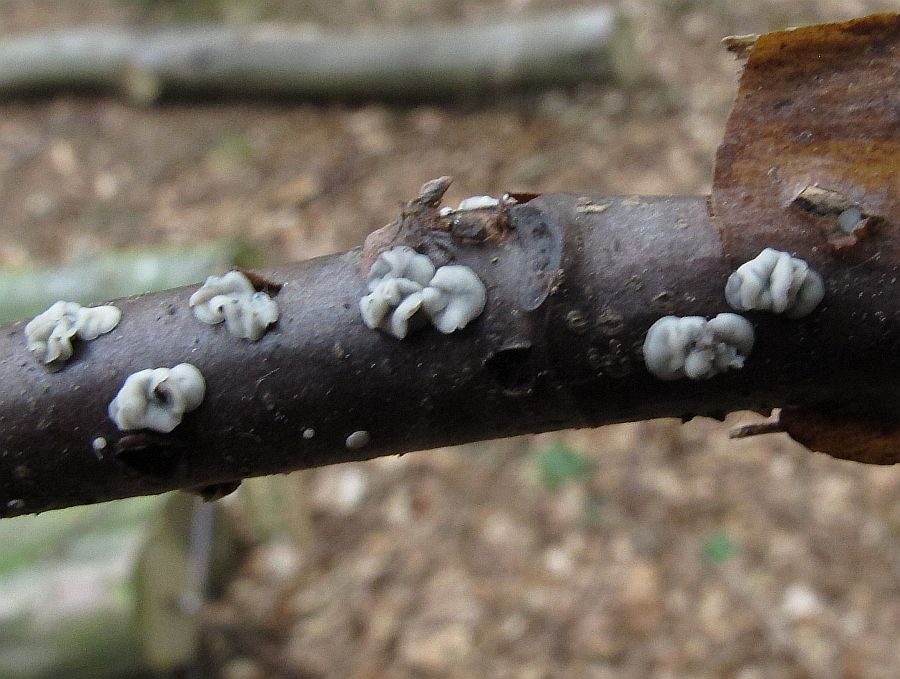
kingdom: Fungi
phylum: Ascomycota
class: Leotiomycetes
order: Helotiales
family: Mollisiaceae
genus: Mollisia
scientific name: Mollisia discolor
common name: tofarvet gråskive
